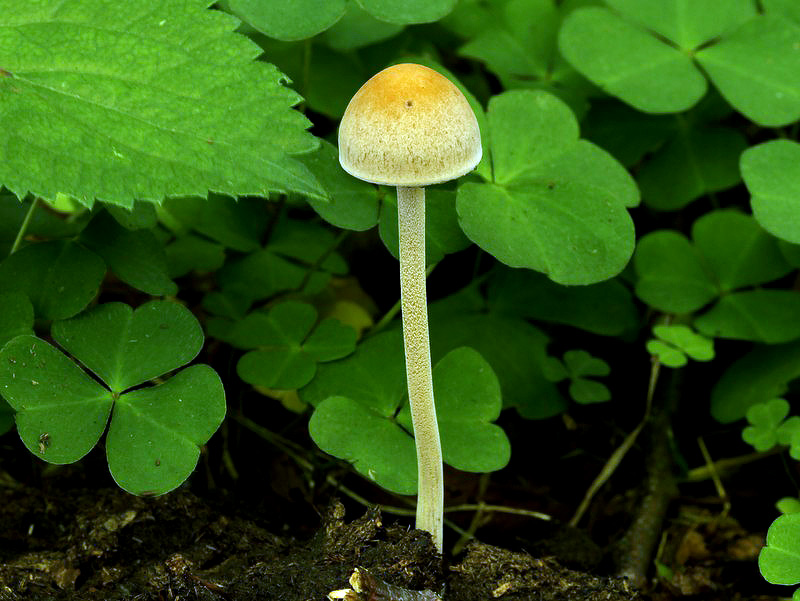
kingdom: Fungi
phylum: Basidiomycota
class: Agaricomycetes
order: Agaricales
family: Bolbitiaceae
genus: Panaeolus
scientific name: Panaeolus subfirmus
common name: fælled-glanshat
